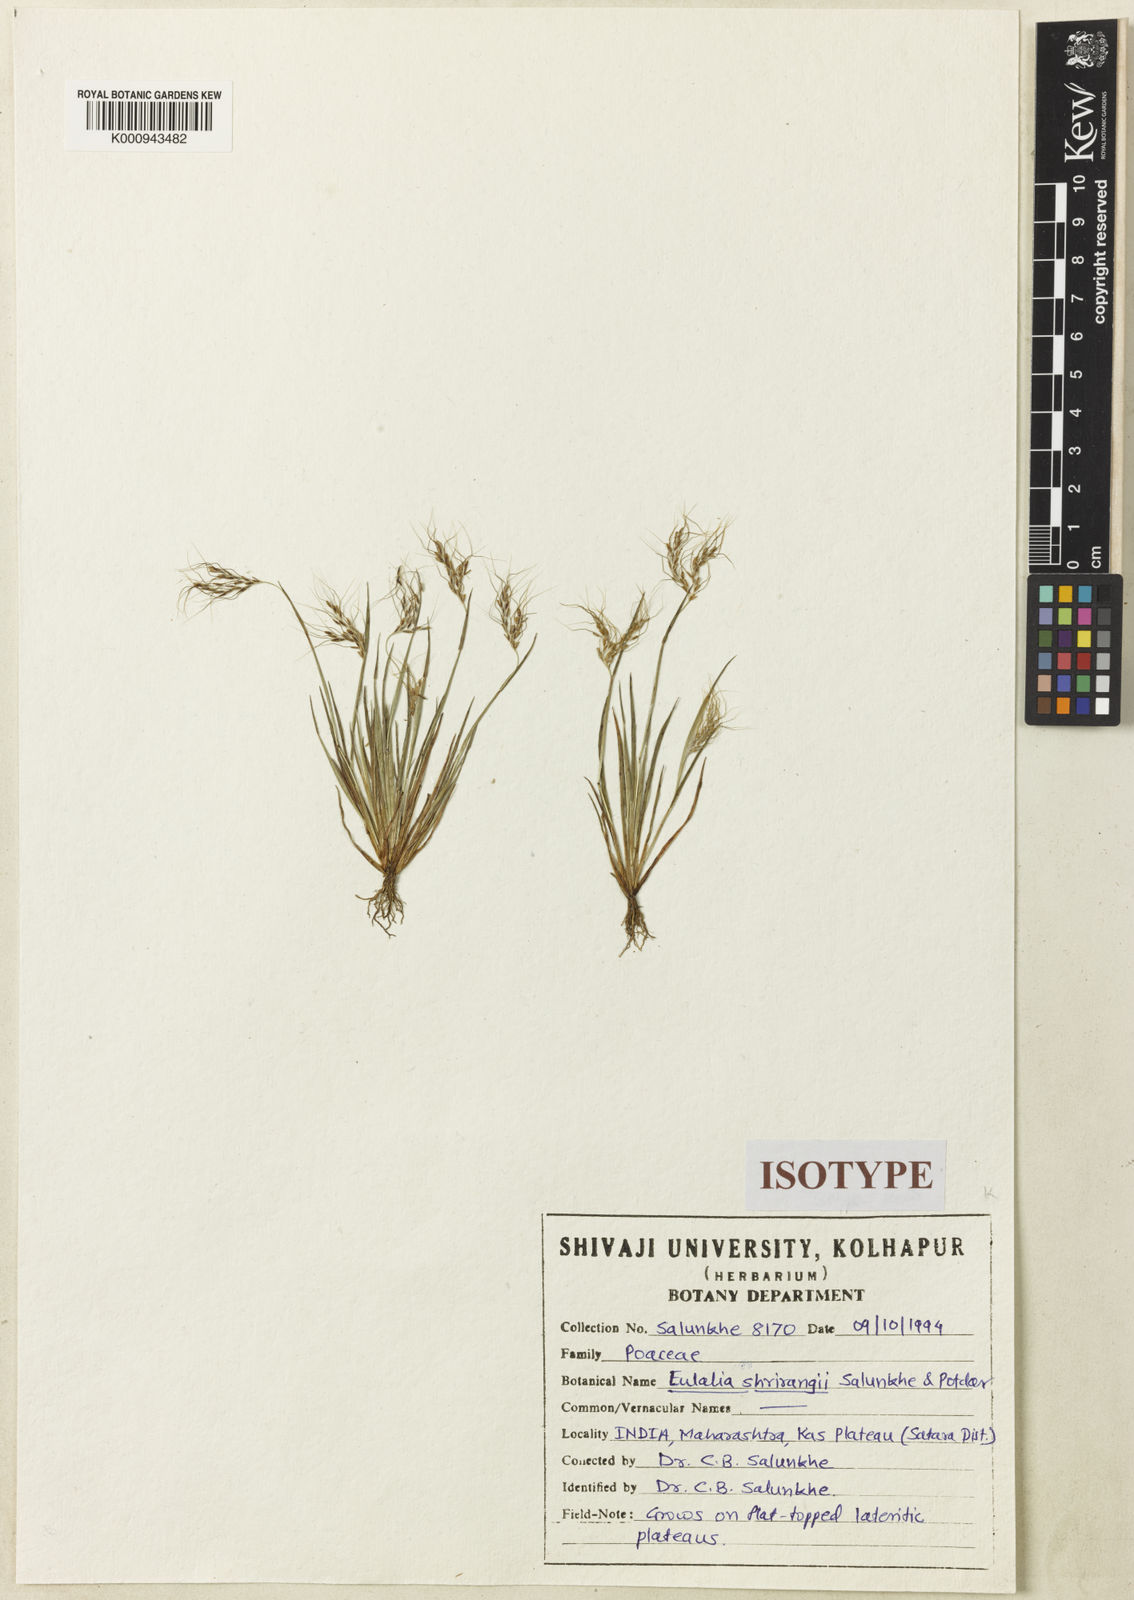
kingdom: Plantae
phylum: Tracheophyta
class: Liliopsida
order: Poales
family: Poaceae
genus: Eulalia
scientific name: Eulalia shrirangii
